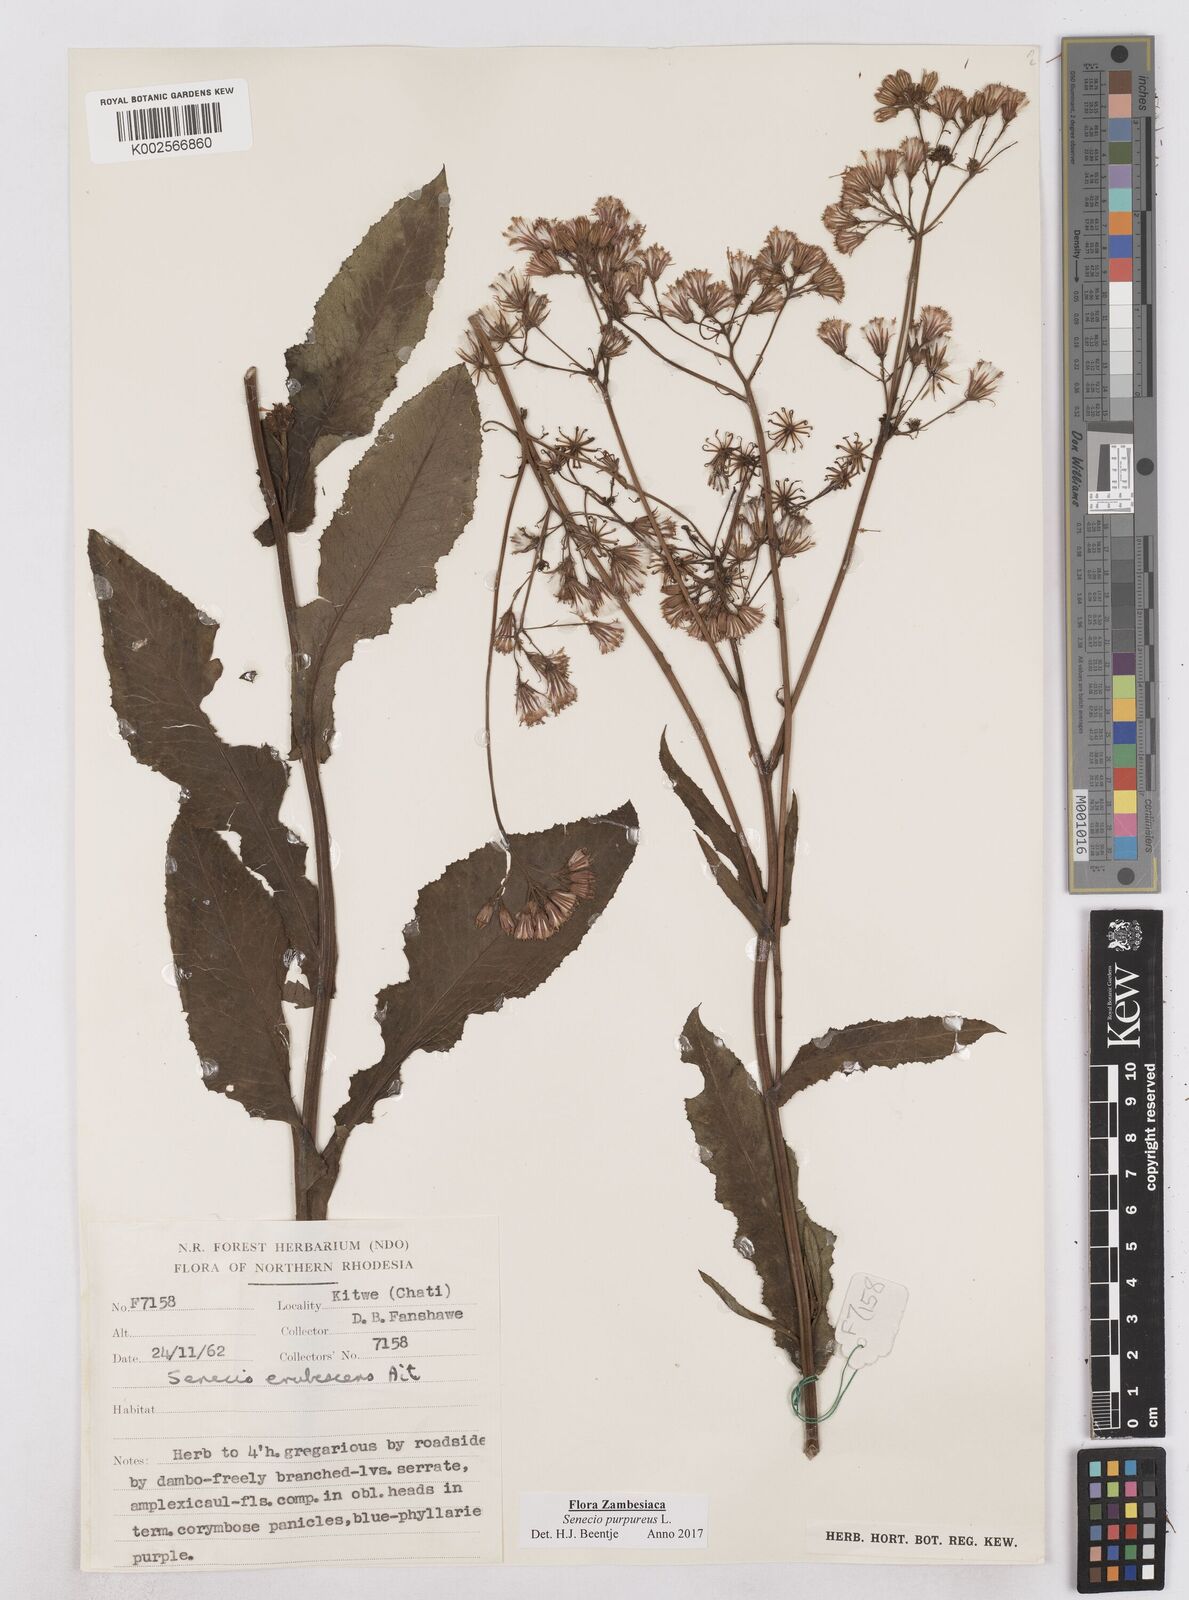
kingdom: Plantae
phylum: Tracheophyta
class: Magnoliopsida
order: Asterales
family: Asteraceae
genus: Senecio
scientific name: Senecio purpureus
